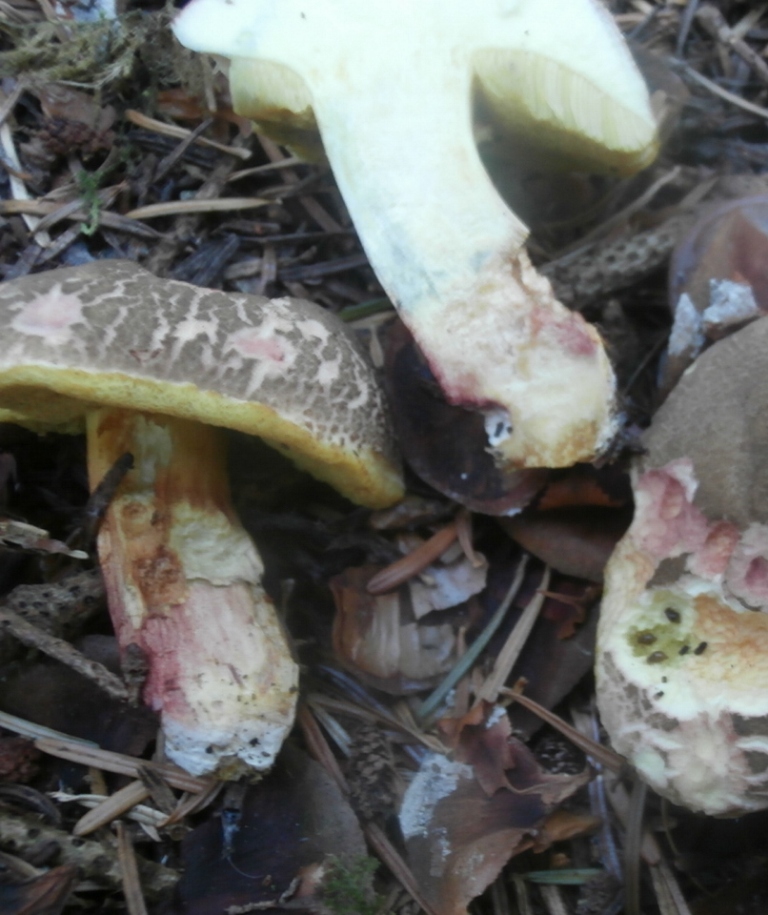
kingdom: Fungi
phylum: Basidiomycota
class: Agaricomycetes
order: Boletales
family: Boletaceae
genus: Xerocomellus
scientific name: Xerocomellus cisalpinus
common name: finsprukken rørhat
